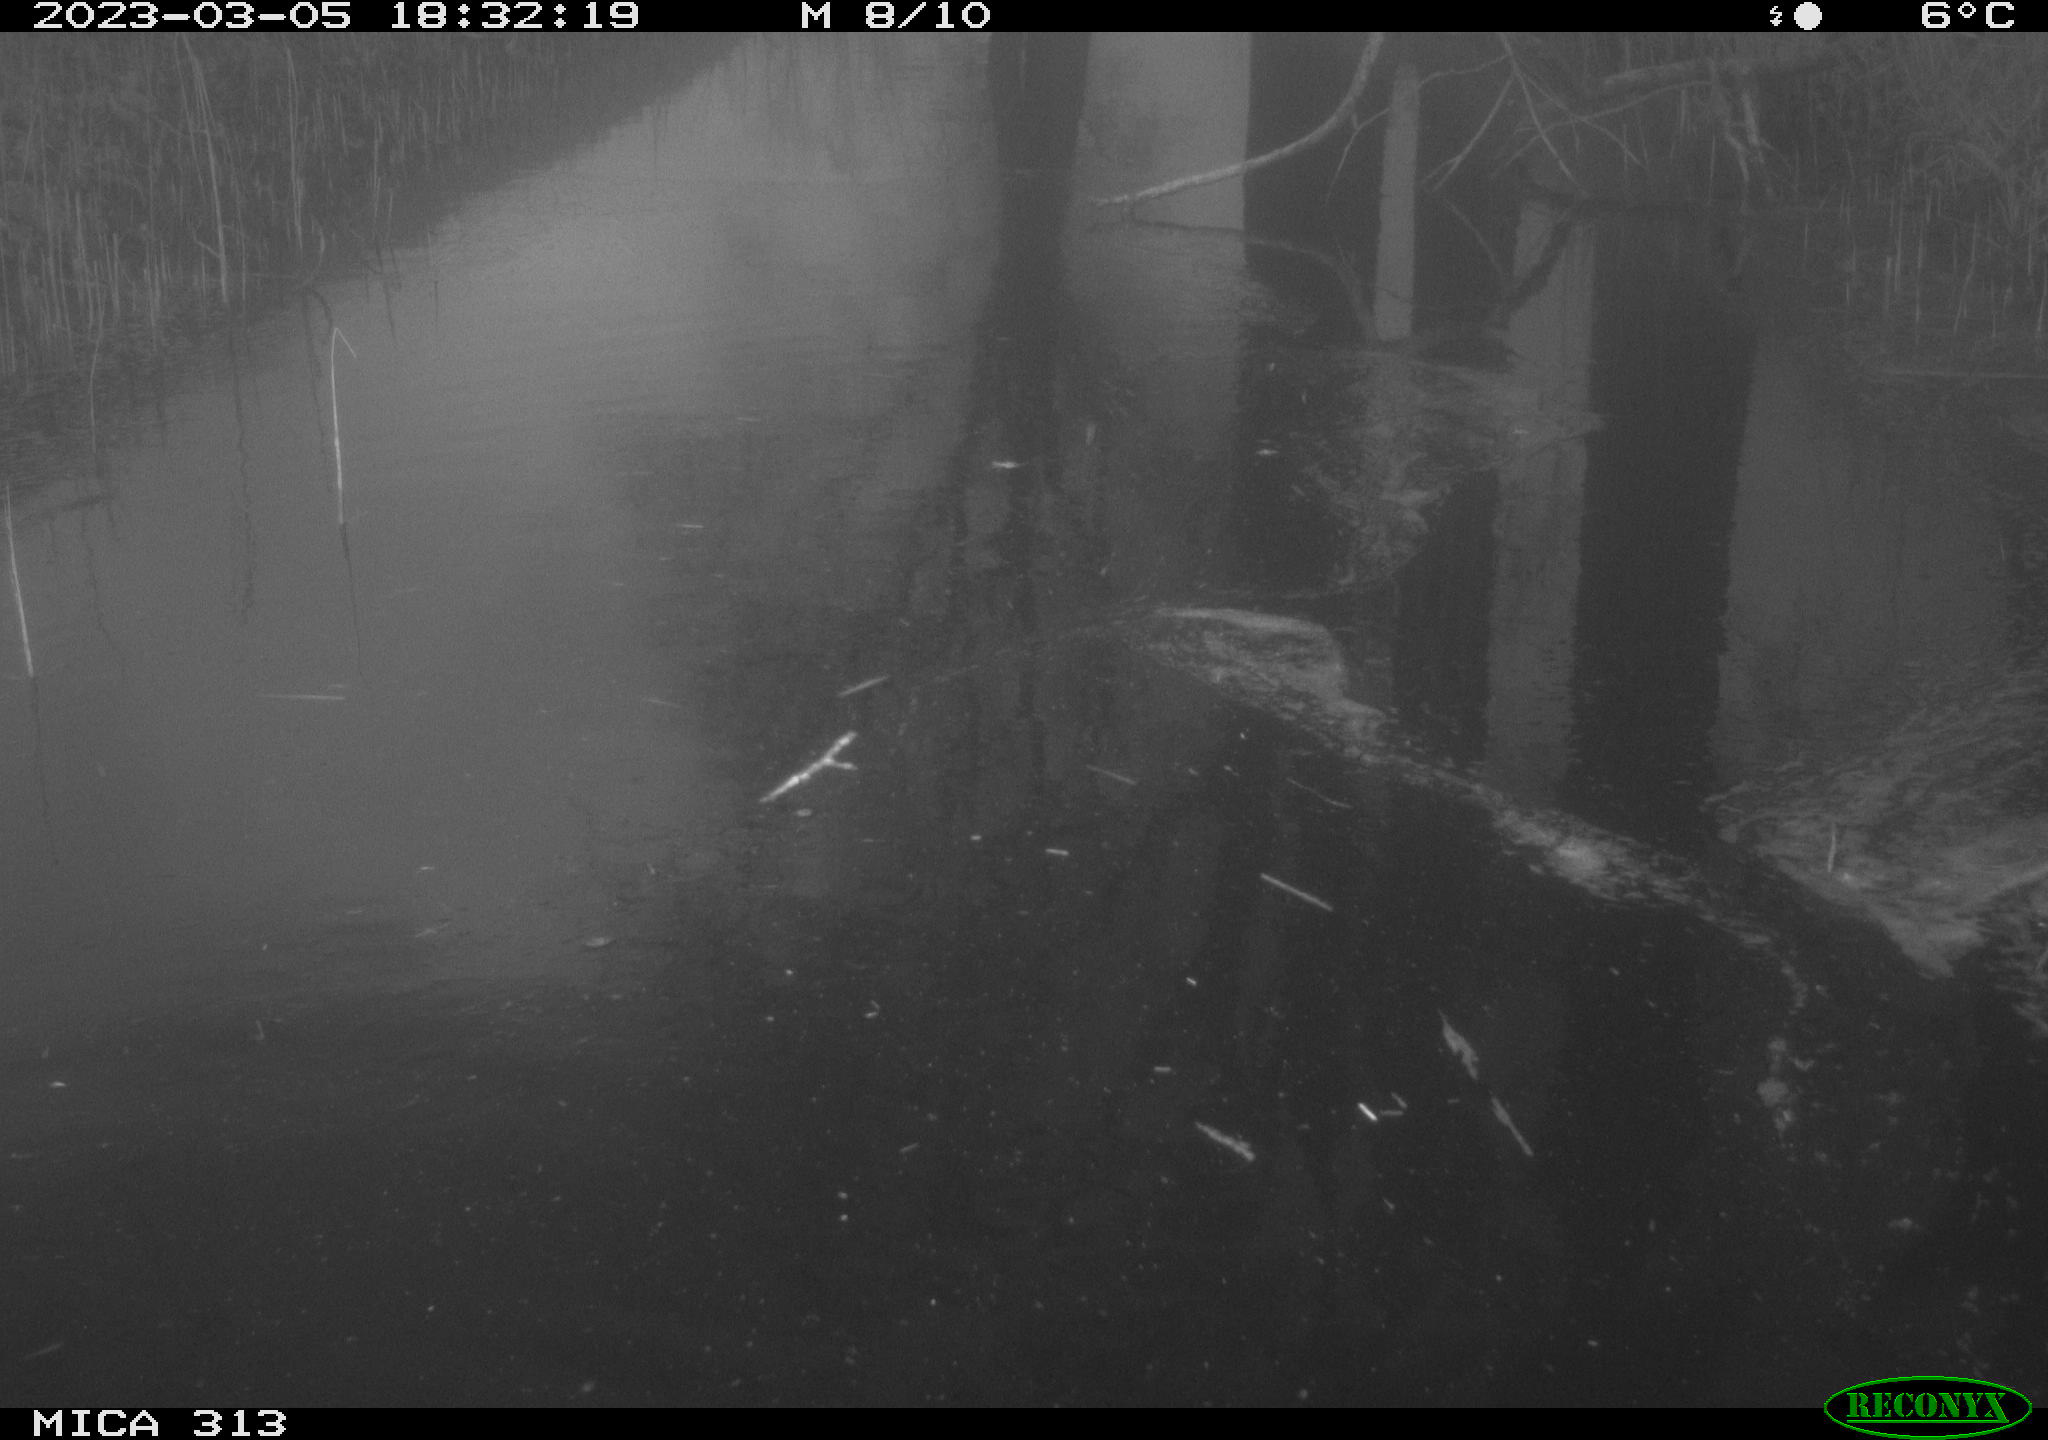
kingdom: Animalia
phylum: Chordata
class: Aves
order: Gruiformes
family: Rallidae
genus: Gallinula
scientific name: Gallinula chloropus
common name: Common moorhen
